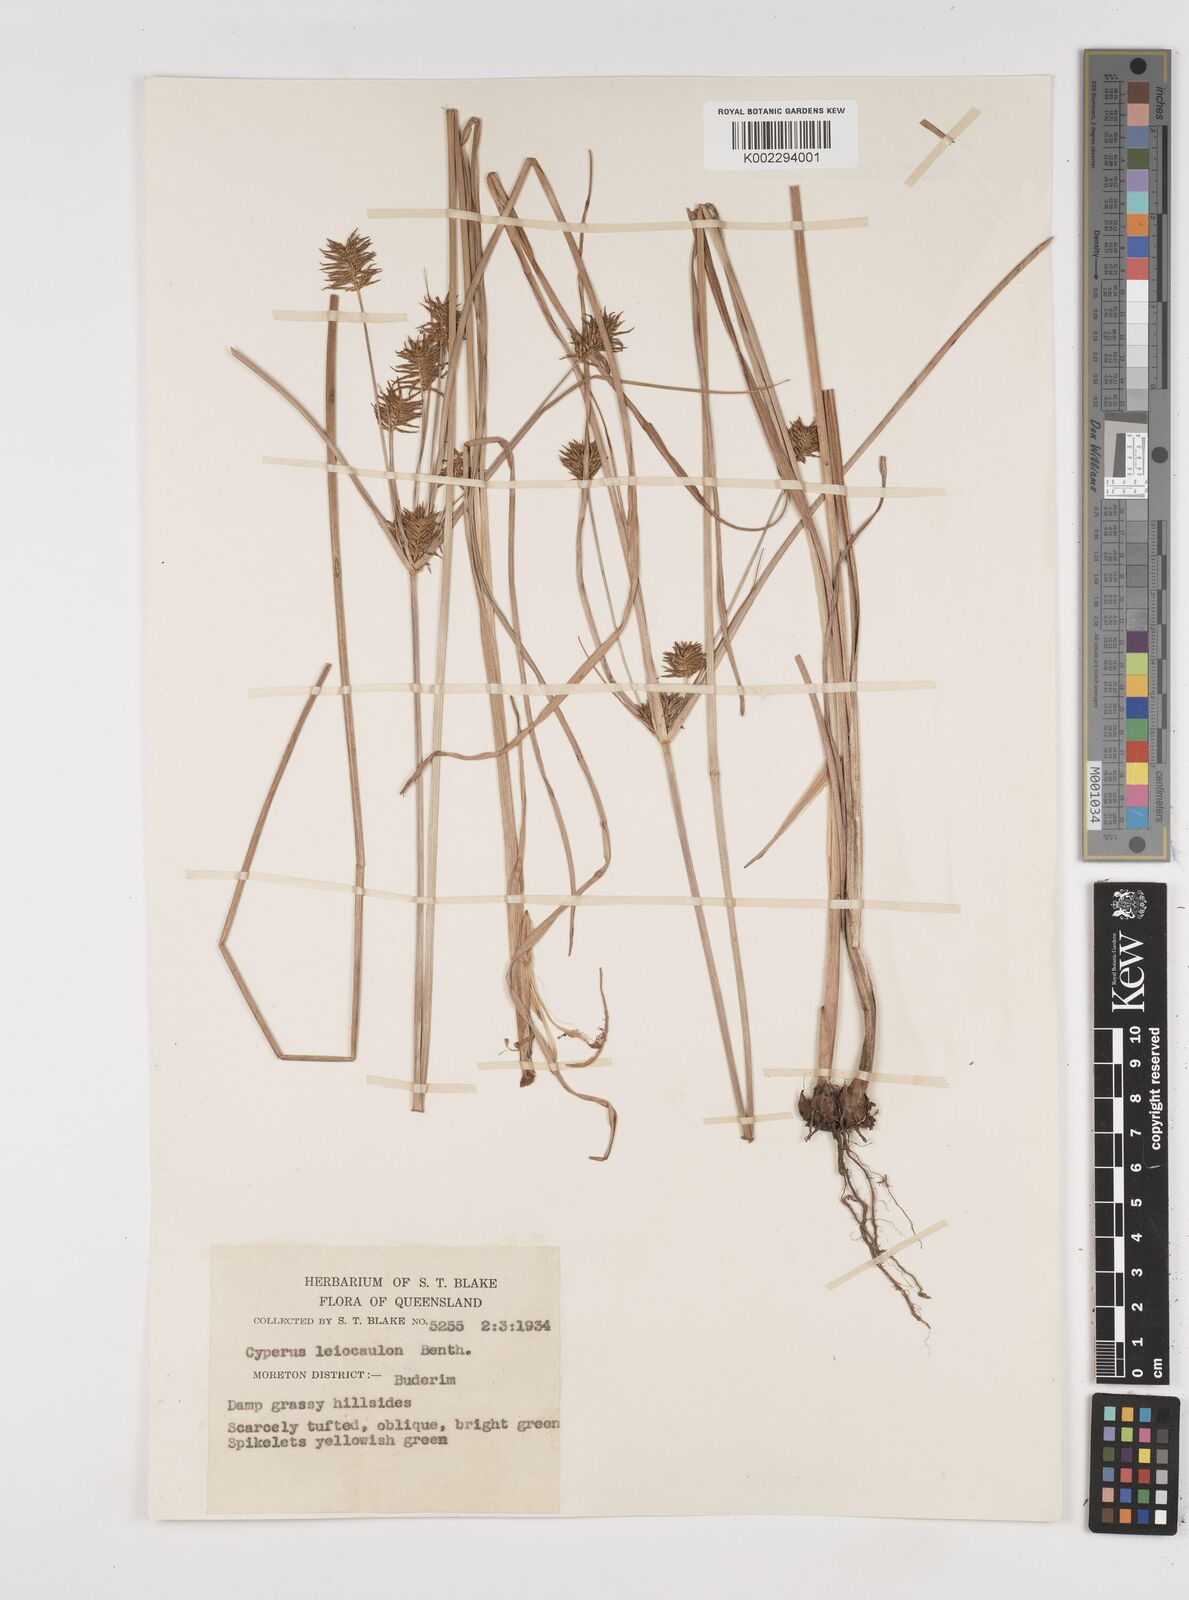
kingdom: Plantae
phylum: Tracheophyta
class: Liliopsida
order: Poales
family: Cyperaceae
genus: Cyperus
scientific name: Cyperus leiocaulon
